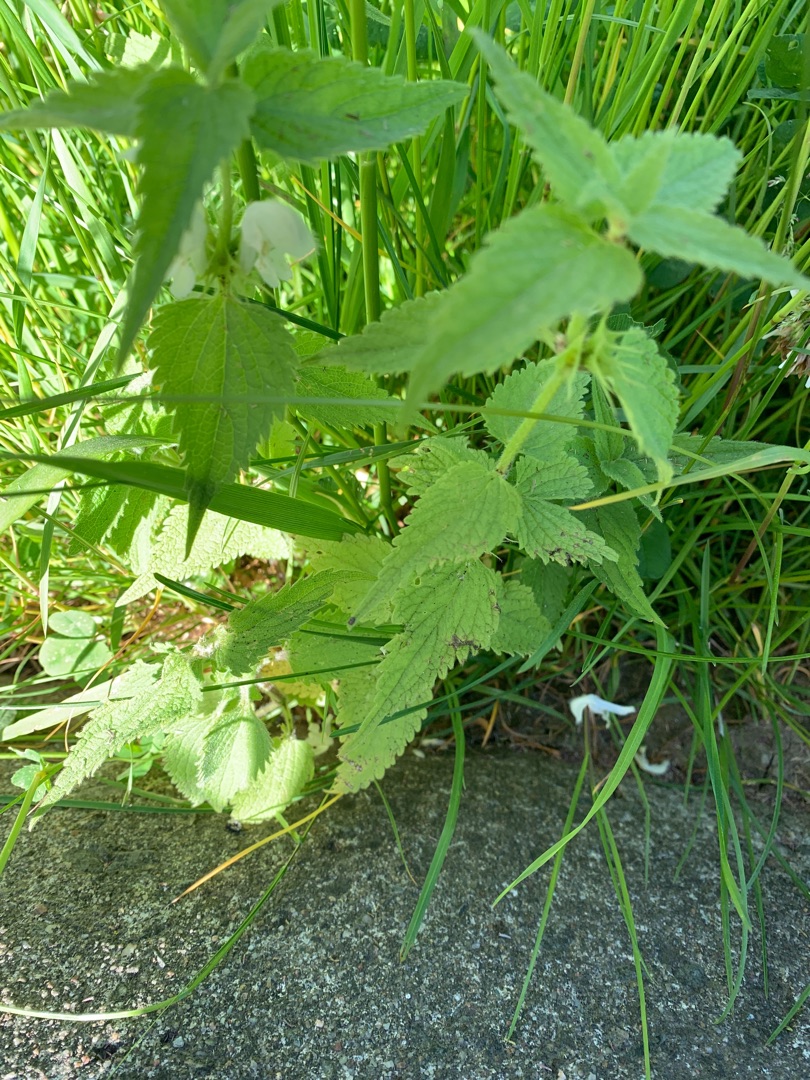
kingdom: Plantae
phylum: Tracheophyta
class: Magnoliopsida
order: Lamiales
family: Lamiaceae
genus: Lamium
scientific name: Lamium album
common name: Døvnælde
